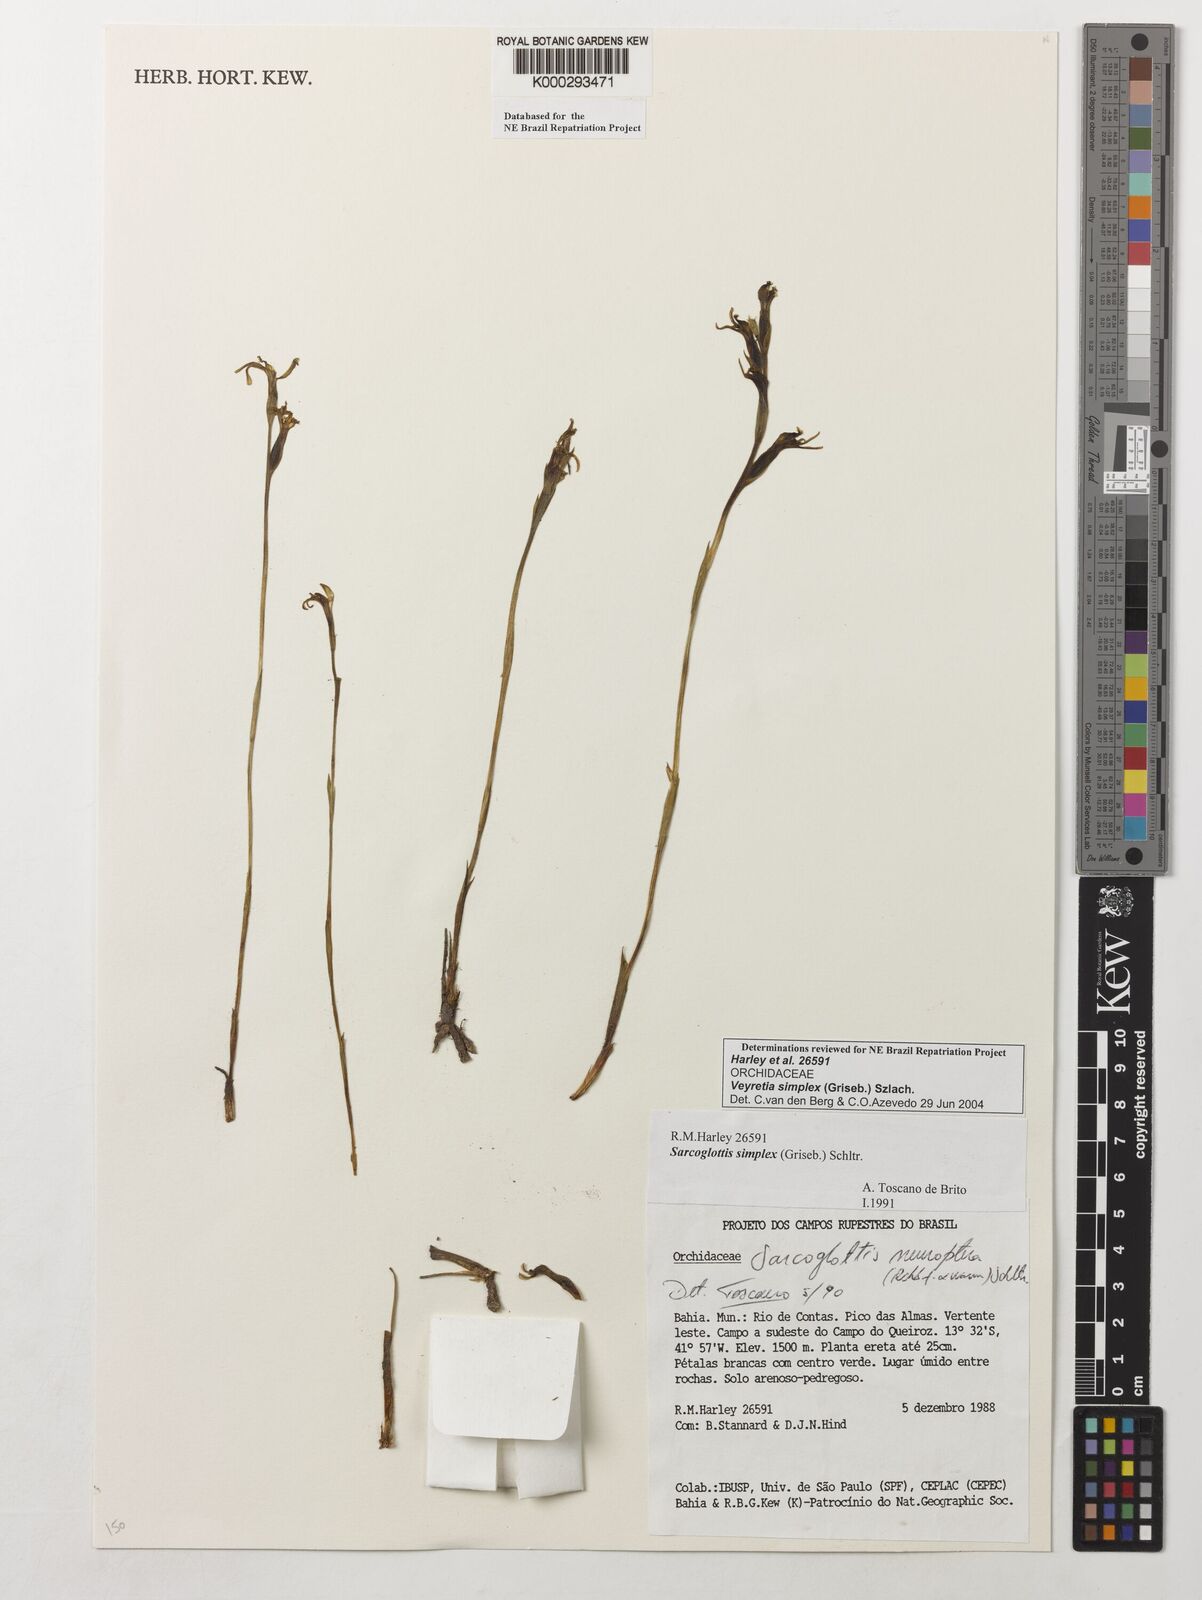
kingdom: Plantae
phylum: Tracheophyta
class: Liliopsida
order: Asparagales
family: Orchidaceae
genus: Veyretia
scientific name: Veyretia simplex
